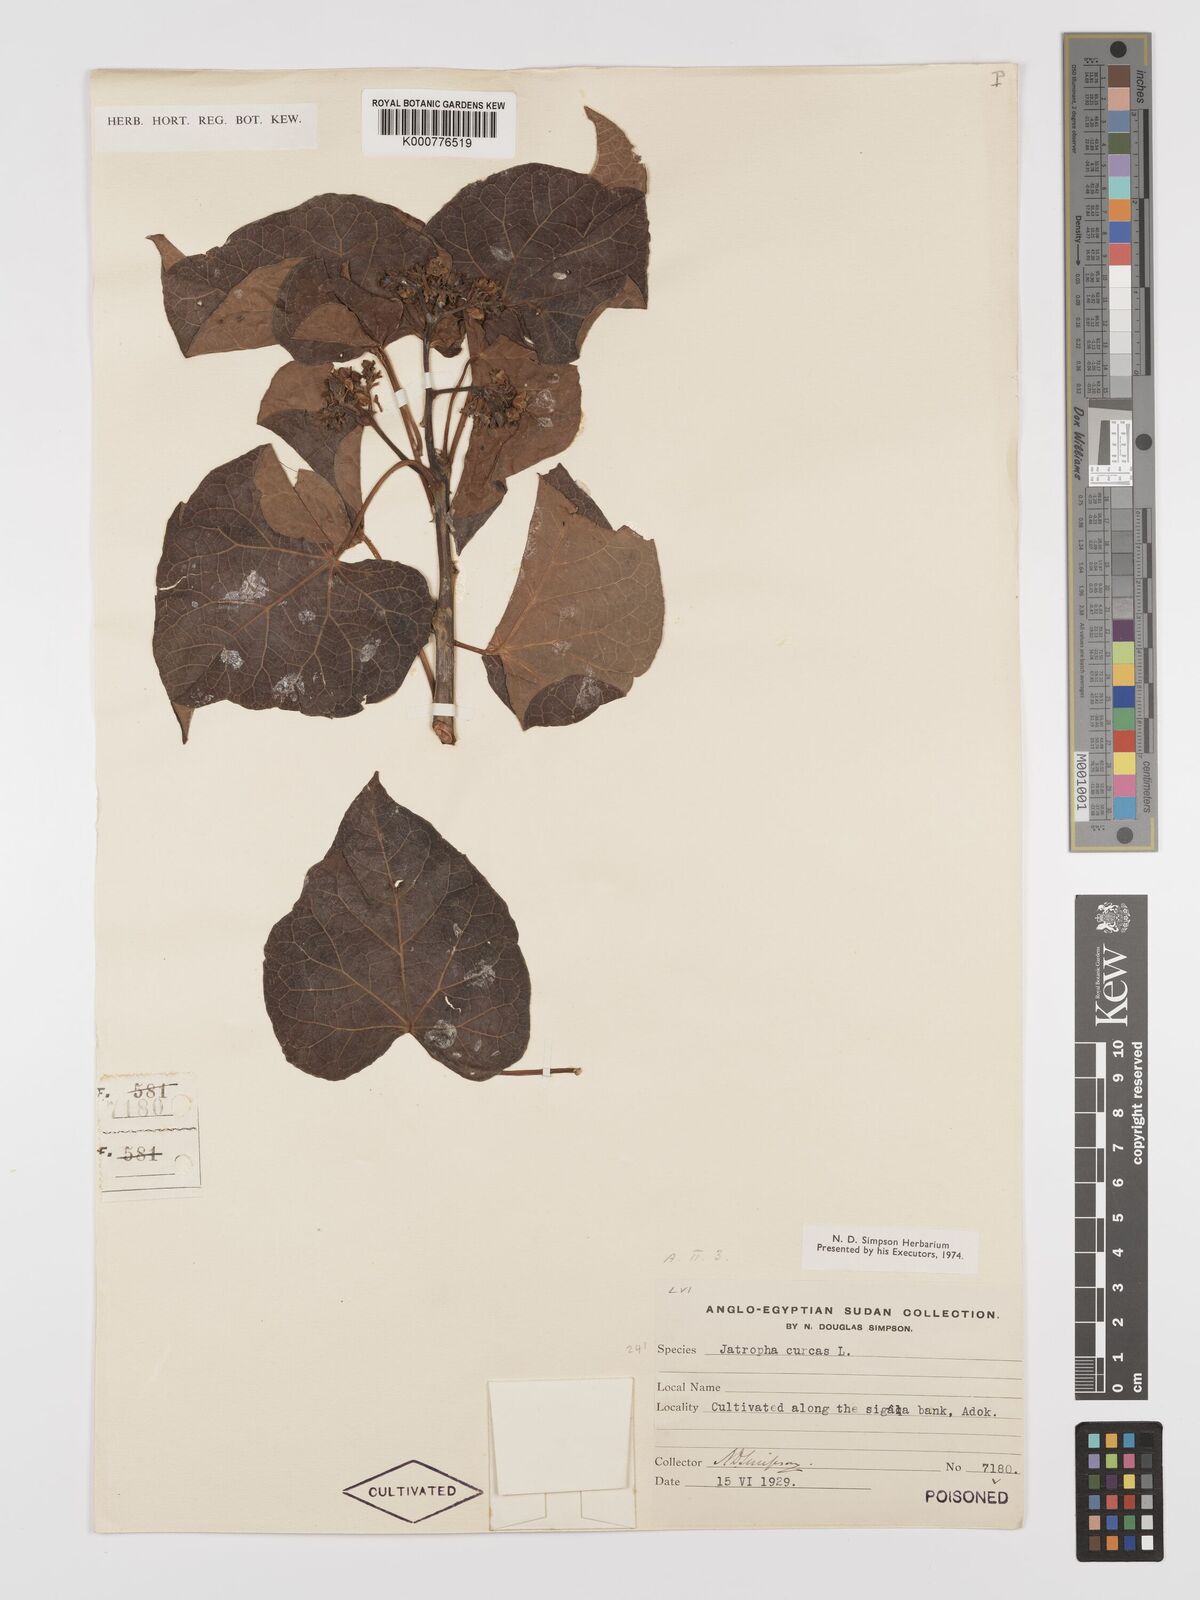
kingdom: Plantae
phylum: Tracheophyta
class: Magnoliopsida
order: Malpighiales
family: Euphorbiaceae
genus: Jatropha
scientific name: Jatropha curcas
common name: Barbados nut
